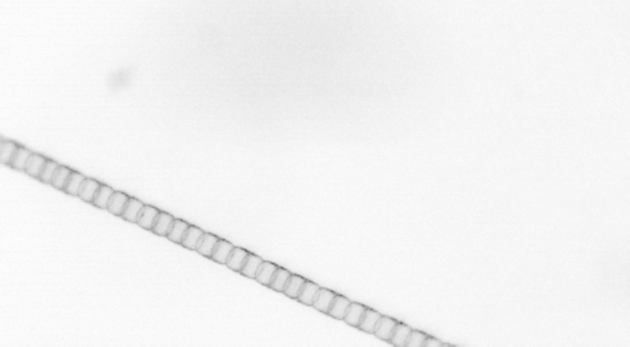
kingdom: Chromista
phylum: Ochrophyta
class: Bacillariophyceae
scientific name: Bacillariophyceae
